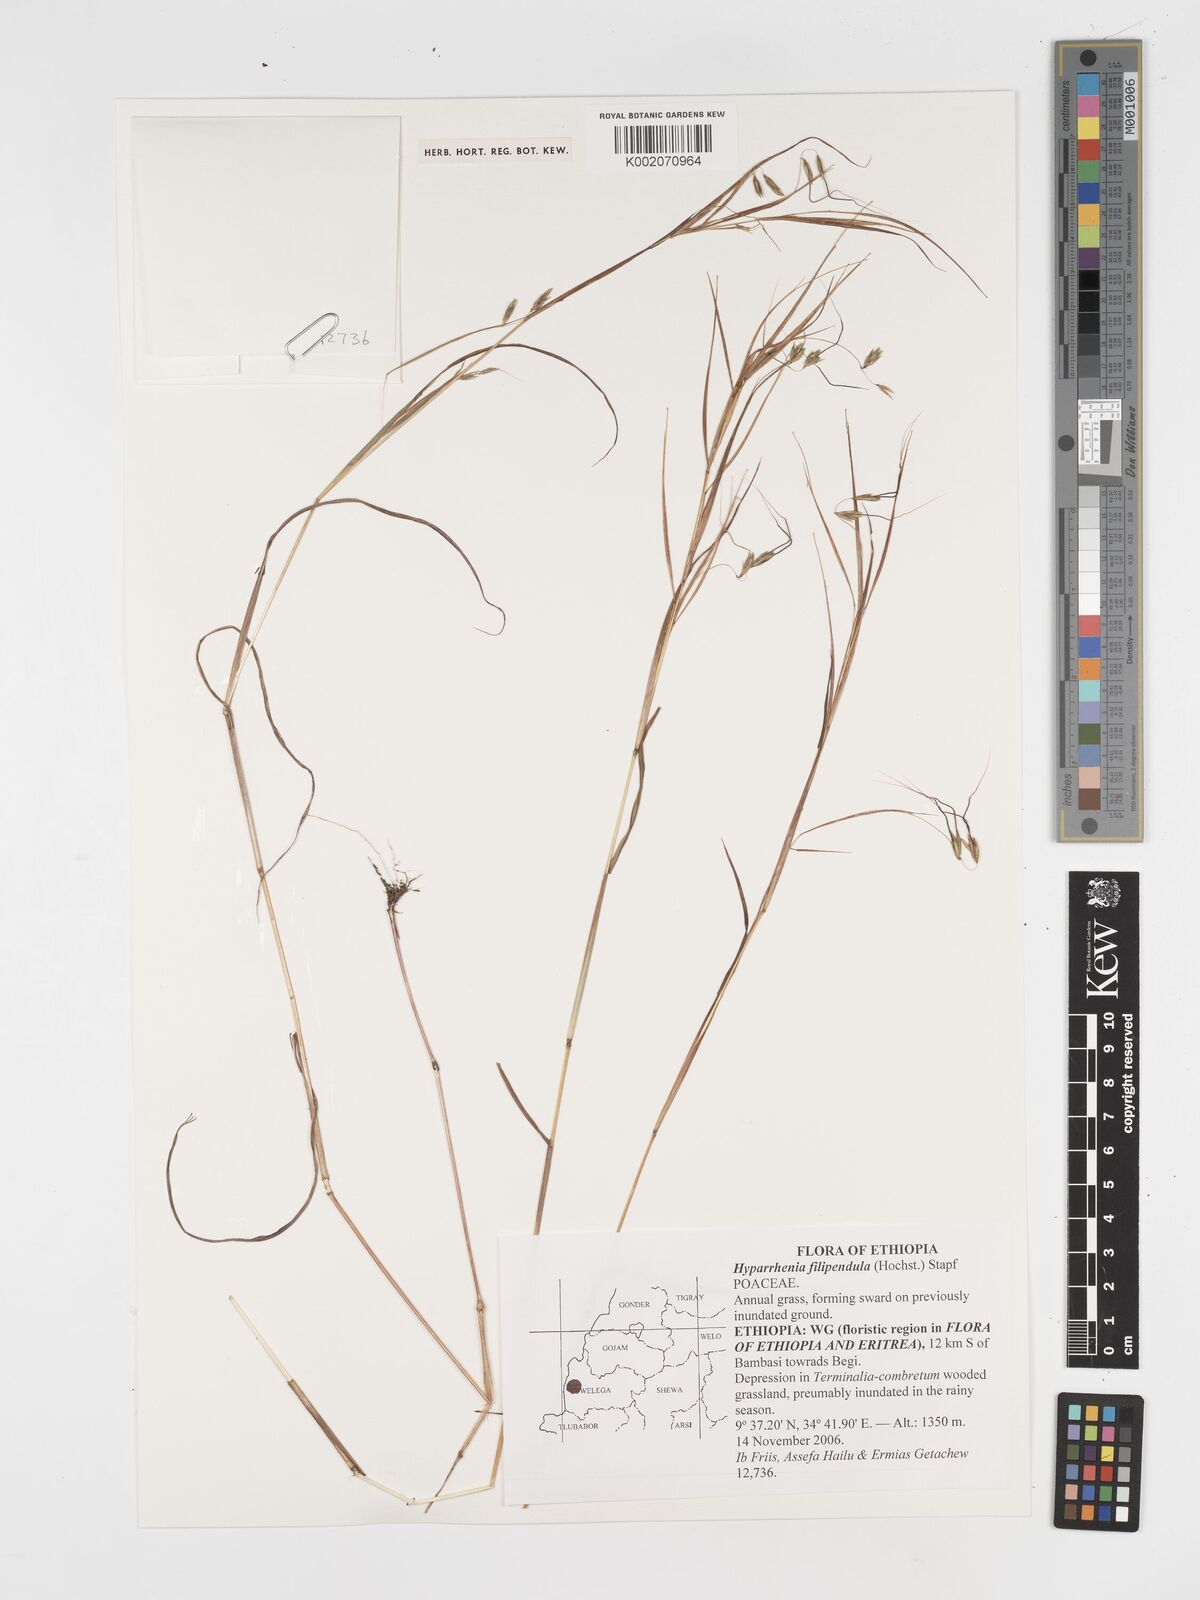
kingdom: Plantae
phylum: Tracheophyta
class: Liliopsida
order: Poales
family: Poaceae
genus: Hyparrhenia
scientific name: Hyparrhenia filipendula
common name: Tambookie grass
